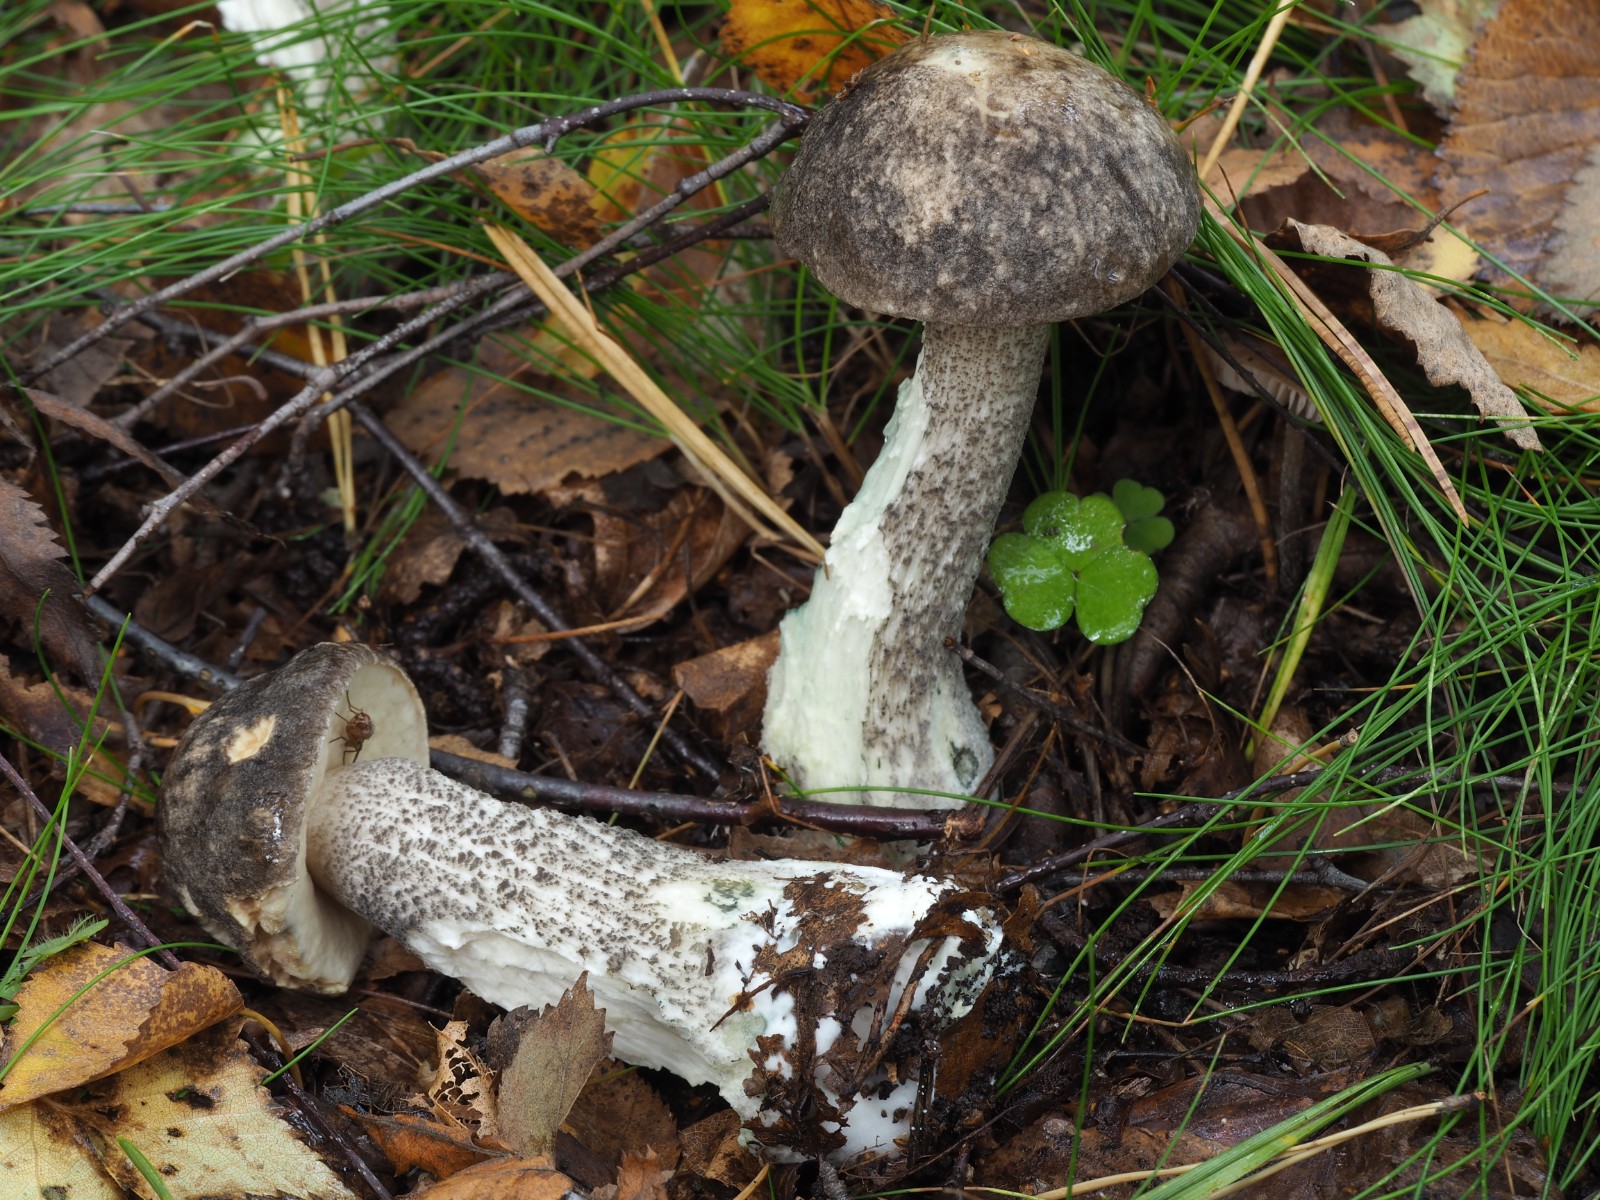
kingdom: Fungi
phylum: Basidiomycota
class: Agaricomycetes
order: Boletales
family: Boletaceae
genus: Leccinum
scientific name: Leccinum variicolor
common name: flammet skælrørhat
